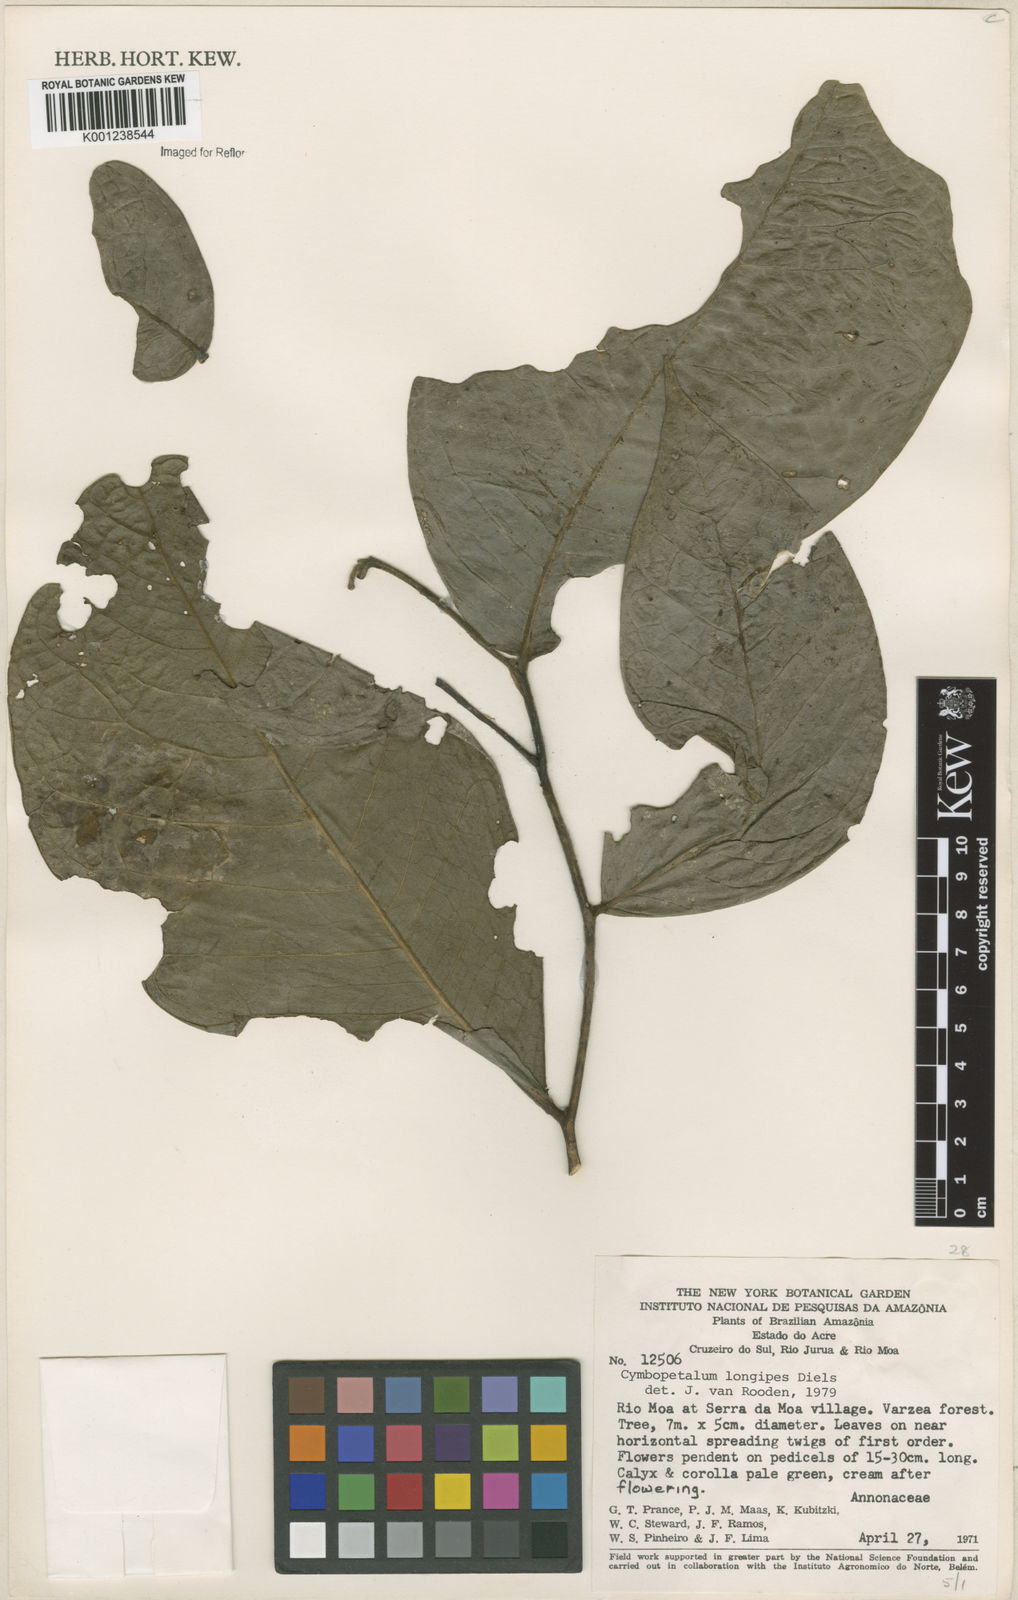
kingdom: Plantae
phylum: Tracheophyta
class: Magnoliopsida
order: Magnoliales
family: Annonaceae
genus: Cymbopetalum
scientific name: Cymbopetalum longipes
